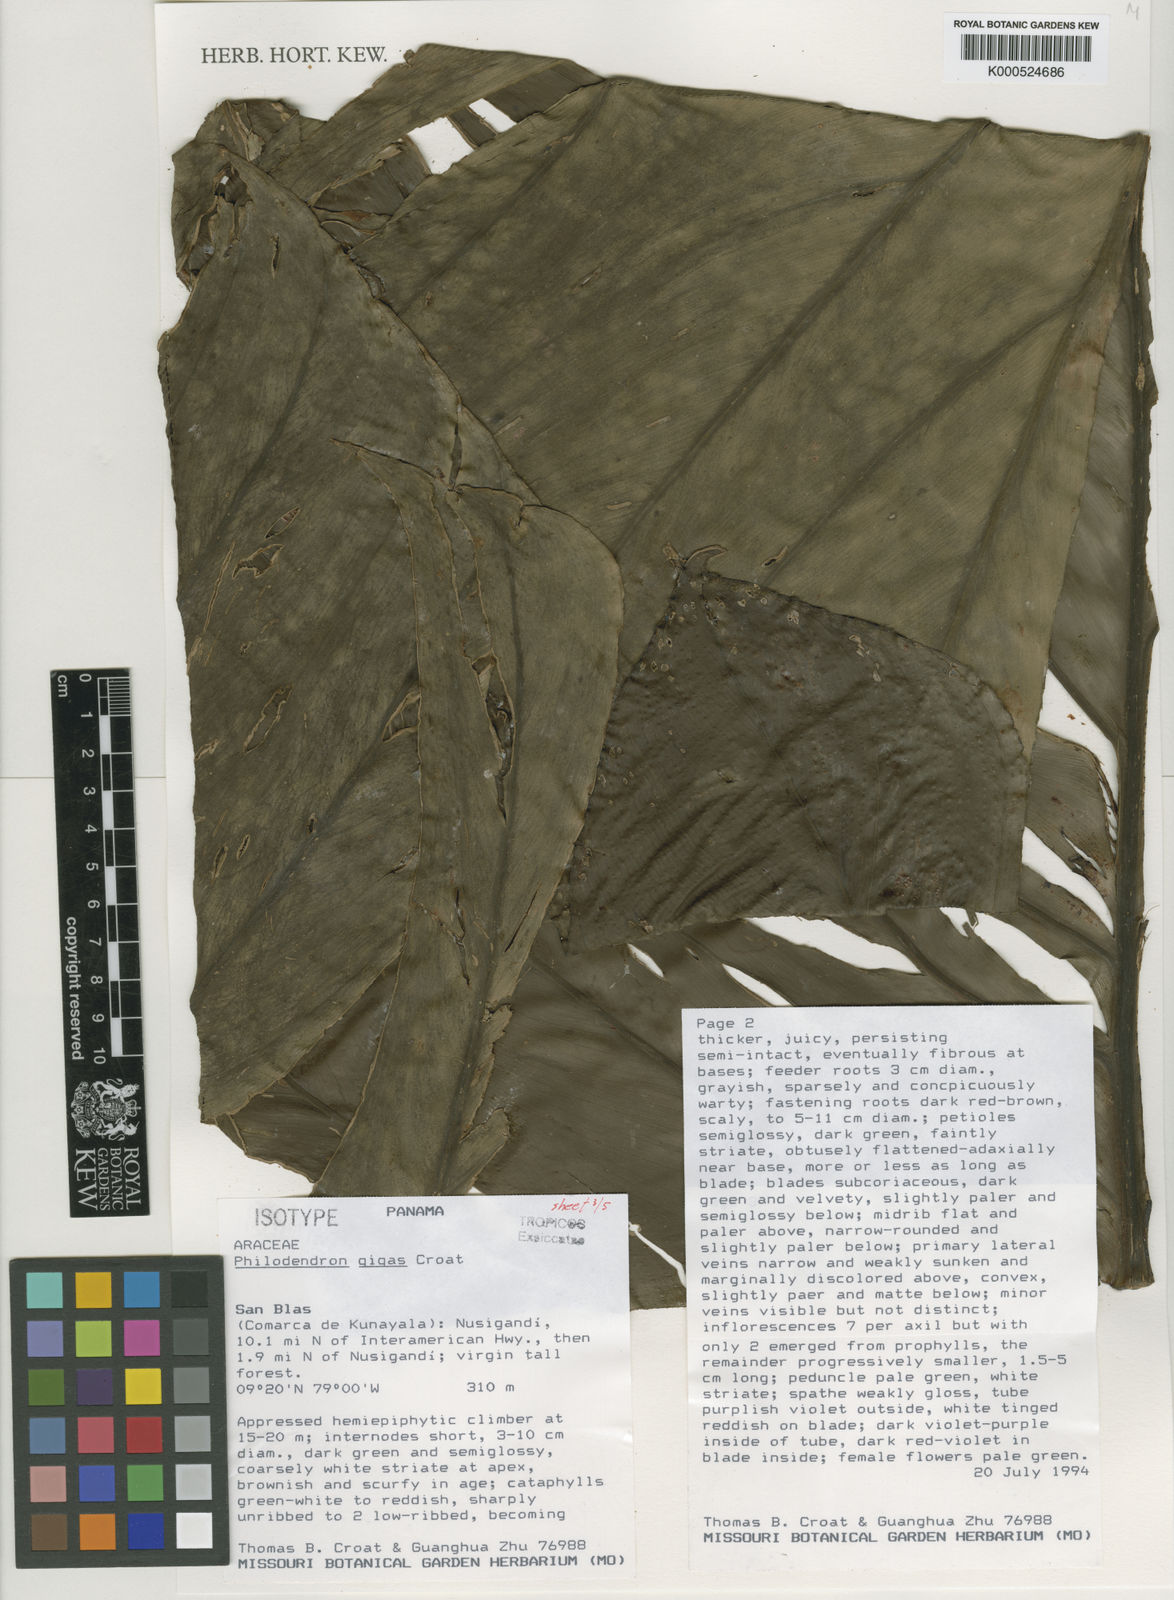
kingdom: Plantae
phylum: Tracheophyta
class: Liliopsida
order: Alismatales
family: Araceae
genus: Philodendron
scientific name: Philodendron gigas
